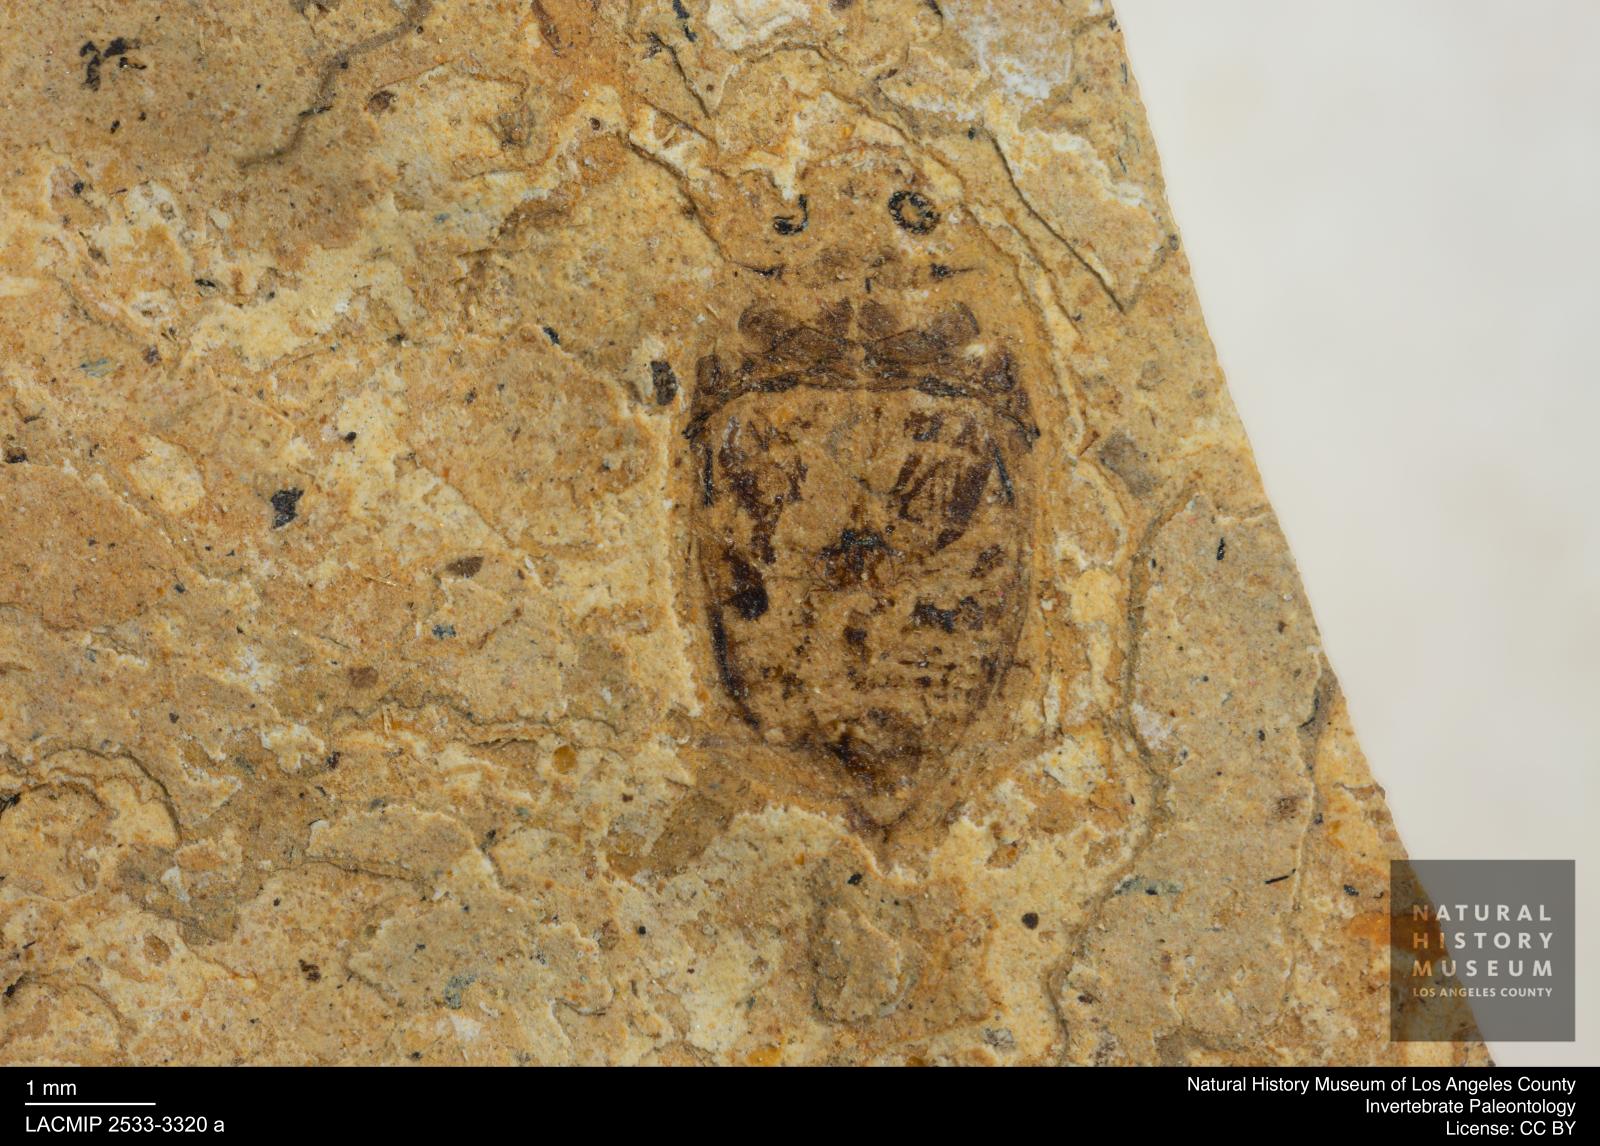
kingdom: Animalia
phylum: Arthropoda
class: Insecta
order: Coleoptera
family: Dytiscidae
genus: Laccophilus
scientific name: Laccophilus Palaeogyrinus strigatus
